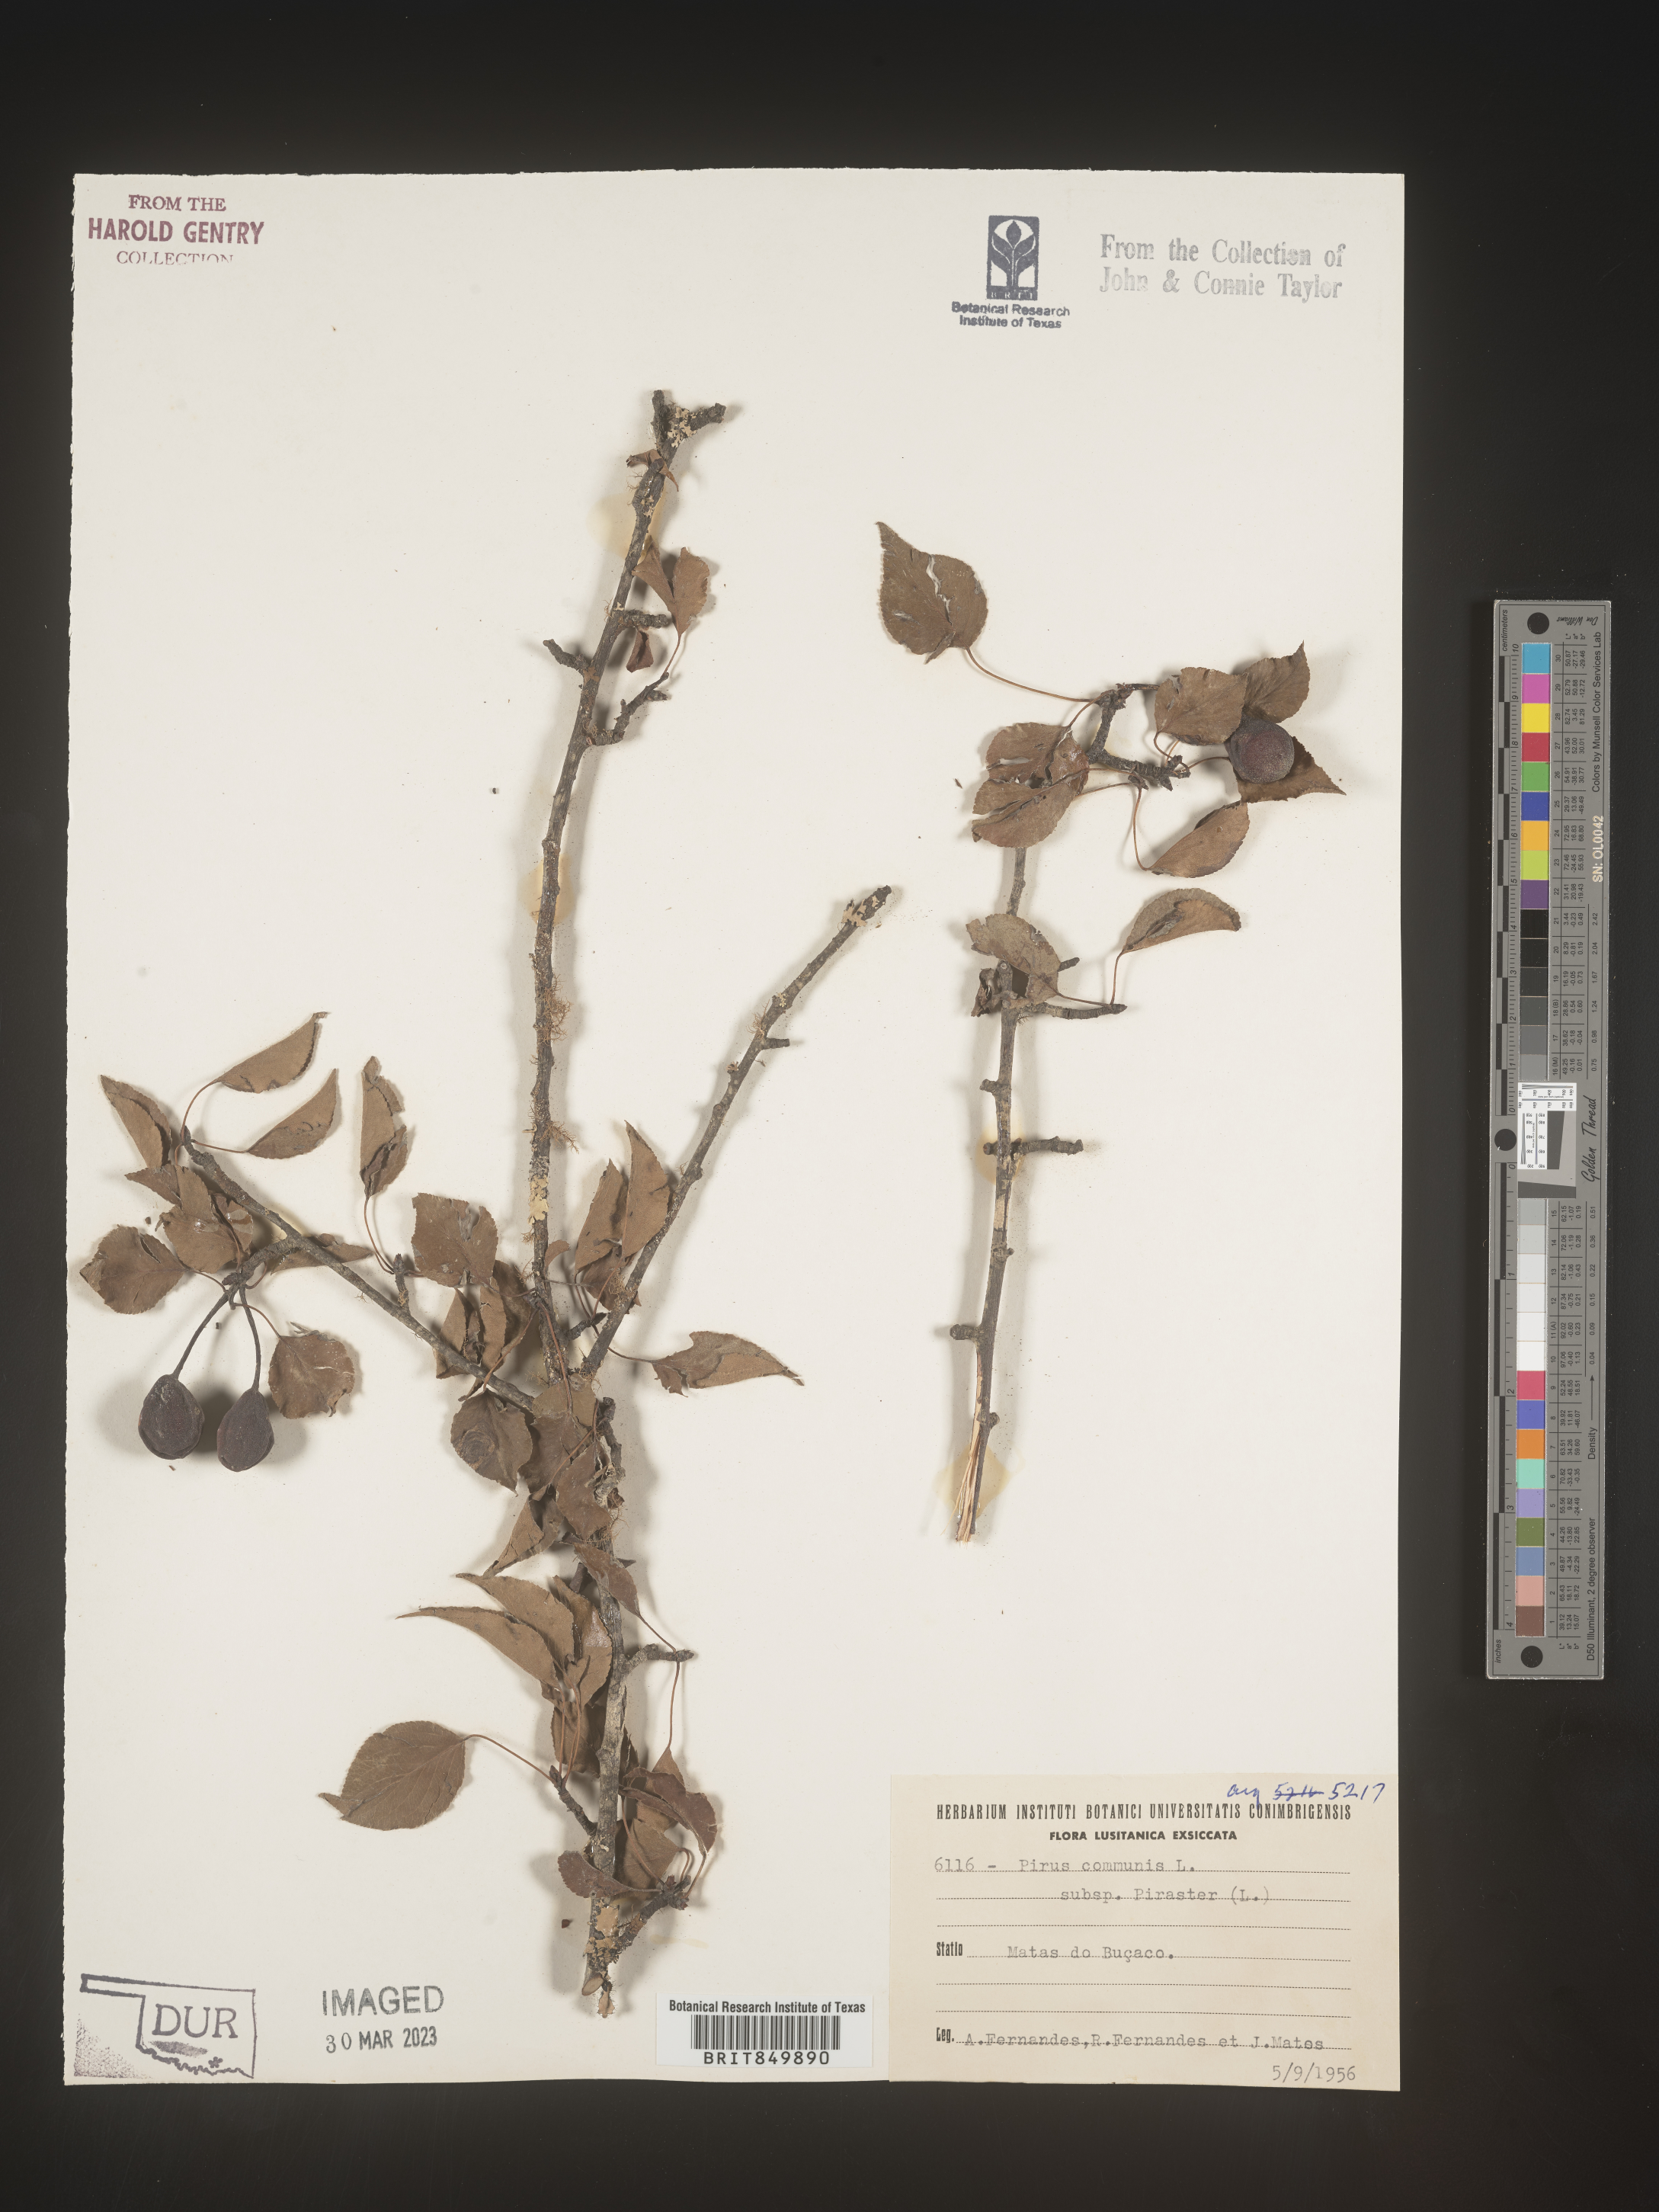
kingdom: Plantae
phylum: Tracheophyta
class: Magnoliopsida
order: Rosales
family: Rosaceae
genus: Pyrus
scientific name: Pyrus
